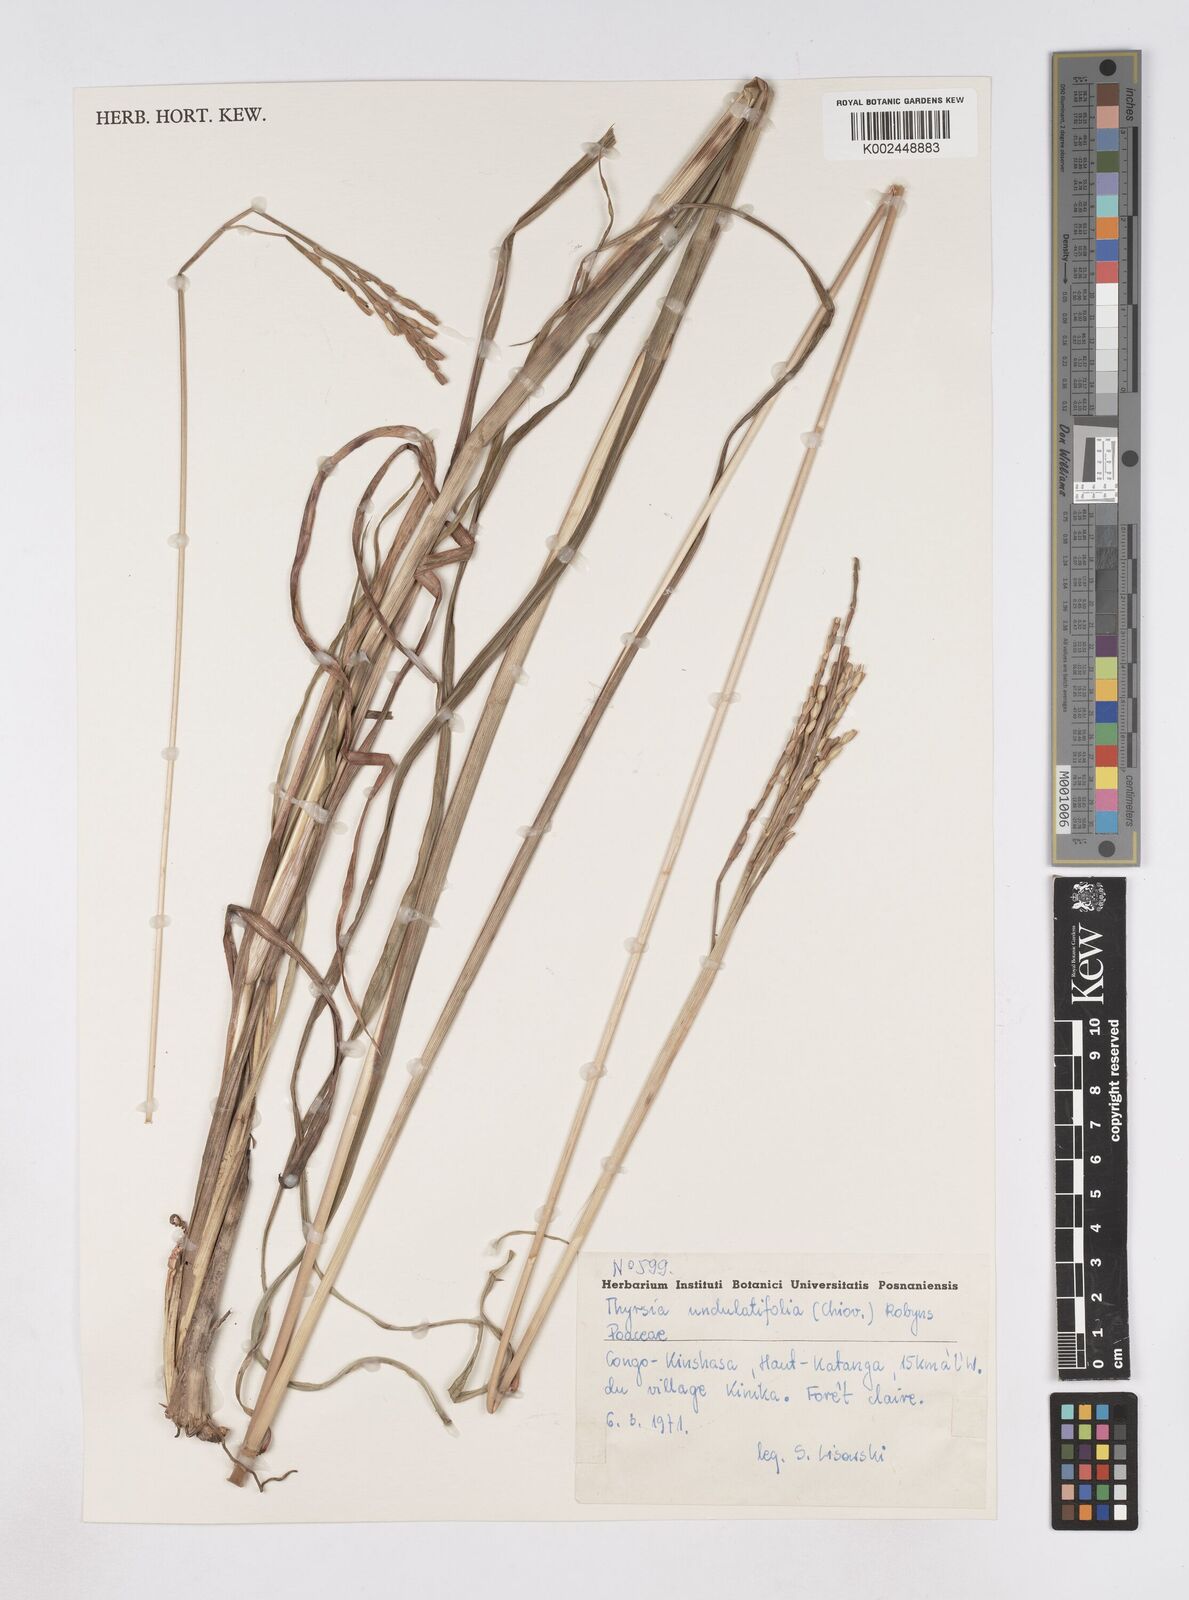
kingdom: Plantae
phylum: Tracheophyta
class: Liliopsida
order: Poales
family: Poaceae
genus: Thyrsia
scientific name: Thyrsia huillensis
